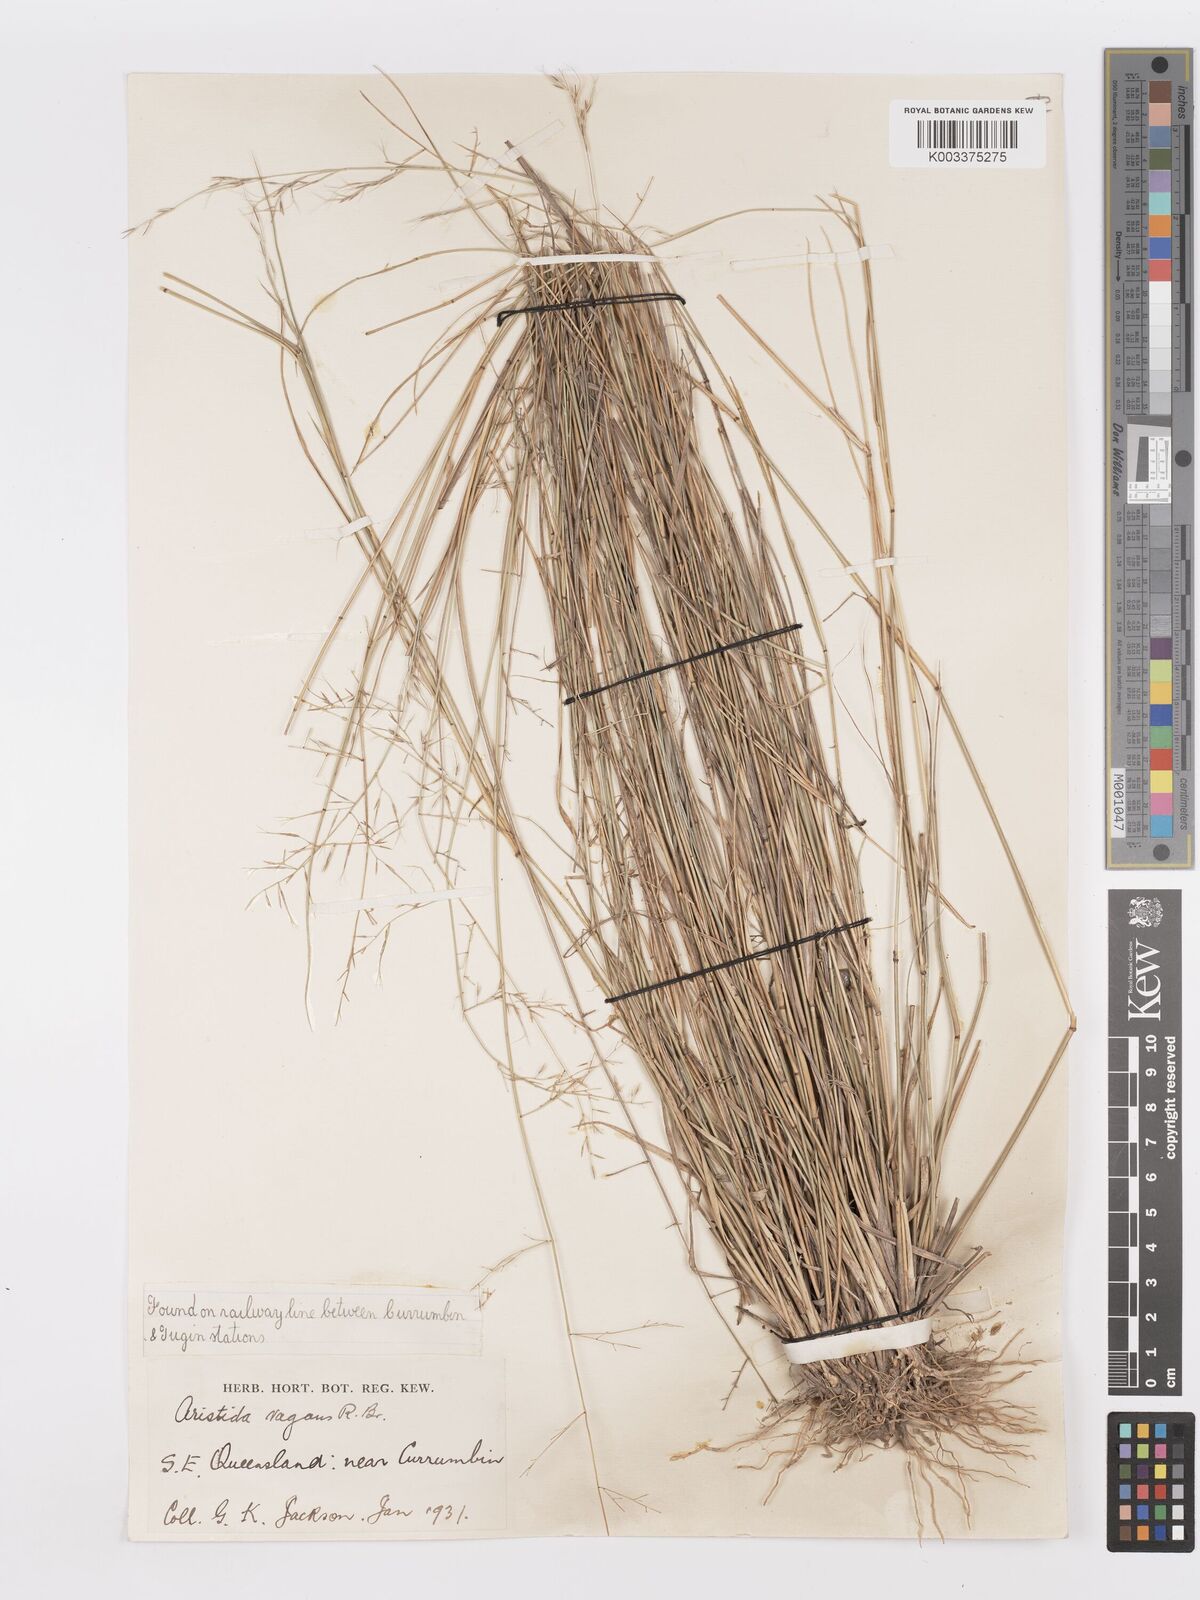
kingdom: Plantae
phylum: Tracheophyta
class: Liliopsida
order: Poales
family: Poaceae
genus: Aristida
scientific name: Aristida vagans
